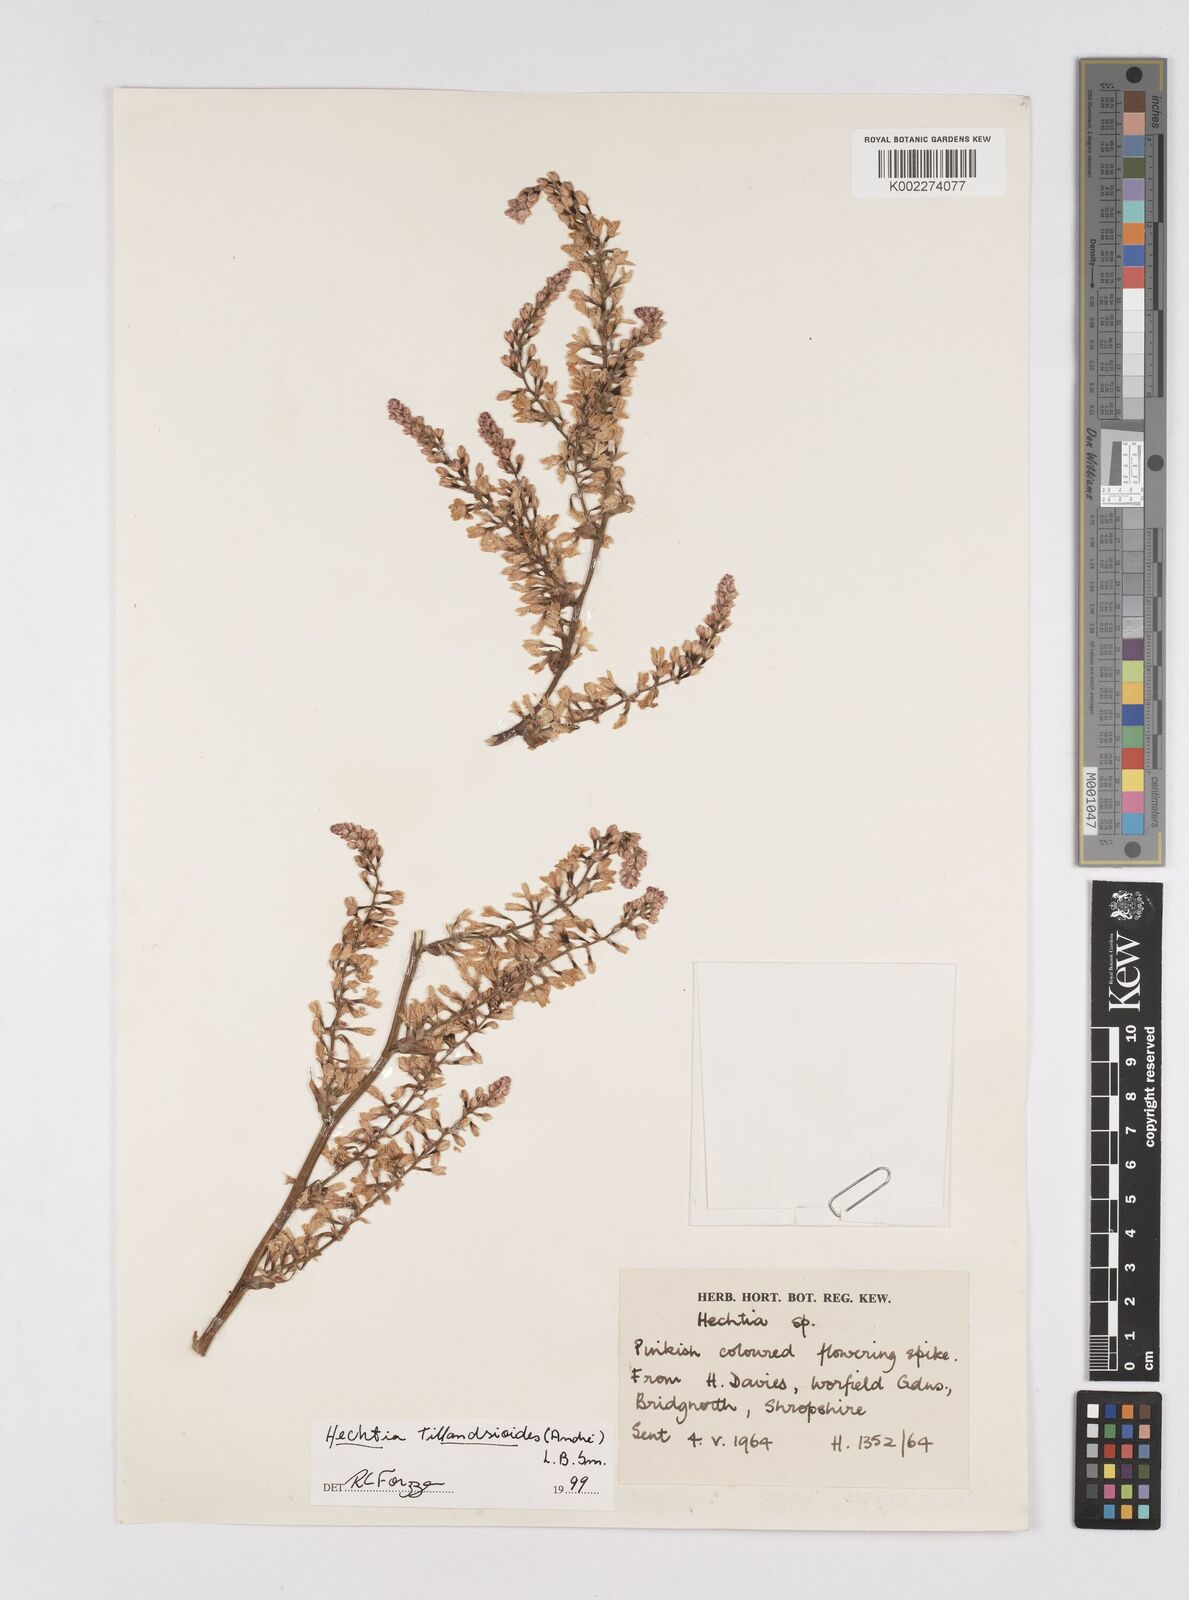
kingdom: Plantae
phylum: Tracheophyta
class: Liliopsida
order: Poales
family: Bromeliaceae
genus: Hechtia
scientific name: Hechtia tillandsioides
